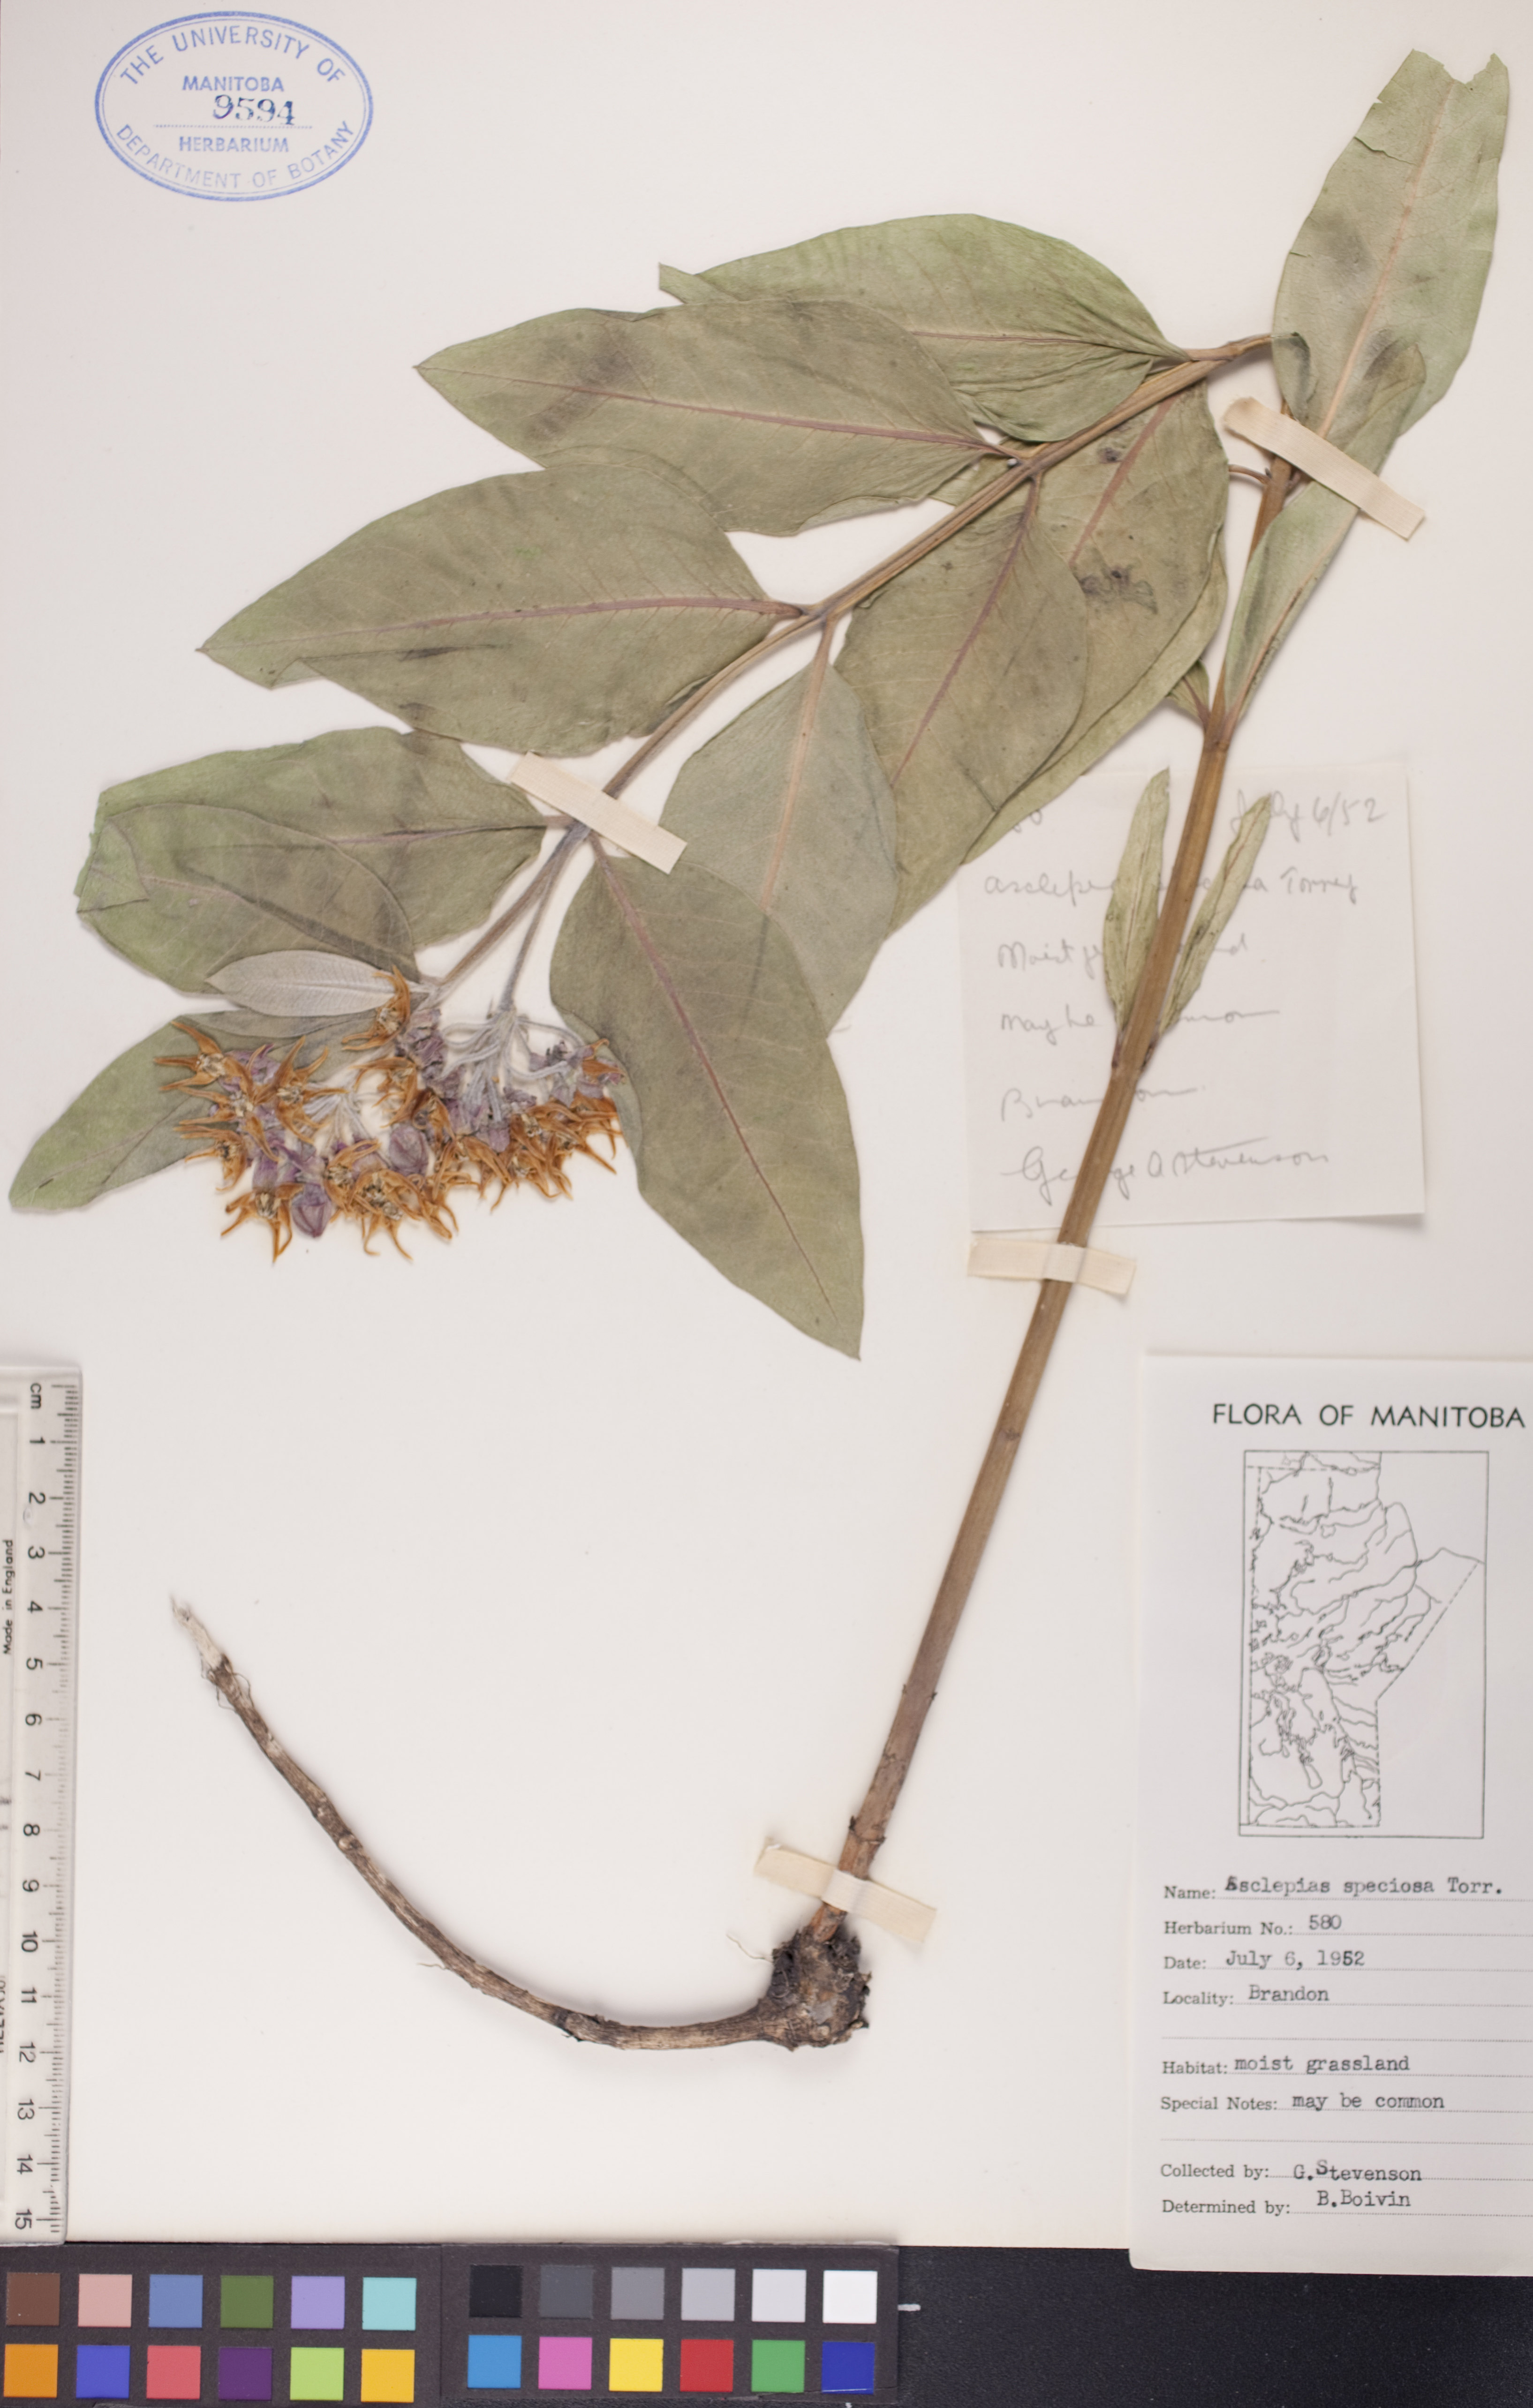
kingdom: Plantae
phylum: Tracheophyta
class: Magnoliopsida
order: Gentianales
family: Apocynaceae
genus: Asclepias
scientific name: Asclepias speciosa
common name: Showy milkweed
